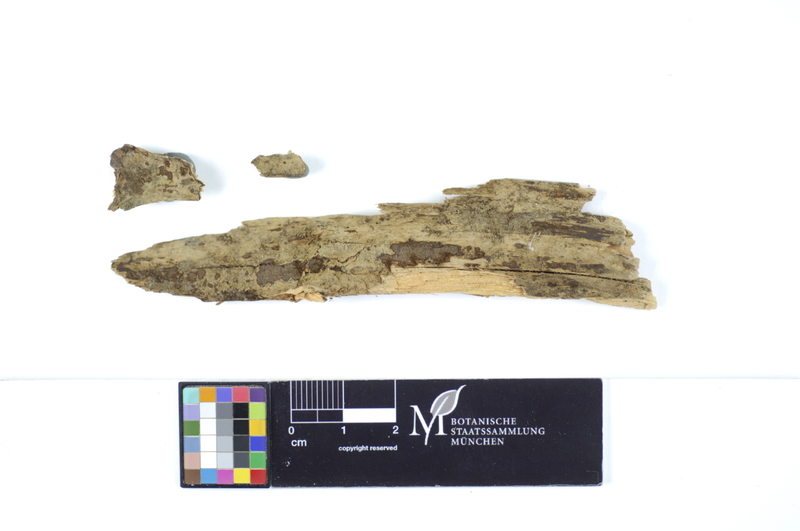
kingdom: Plantae
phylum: Tracheophyta
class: Pinopsida
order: Pinales
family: Pinaceae
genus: Picea
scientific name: Picea
